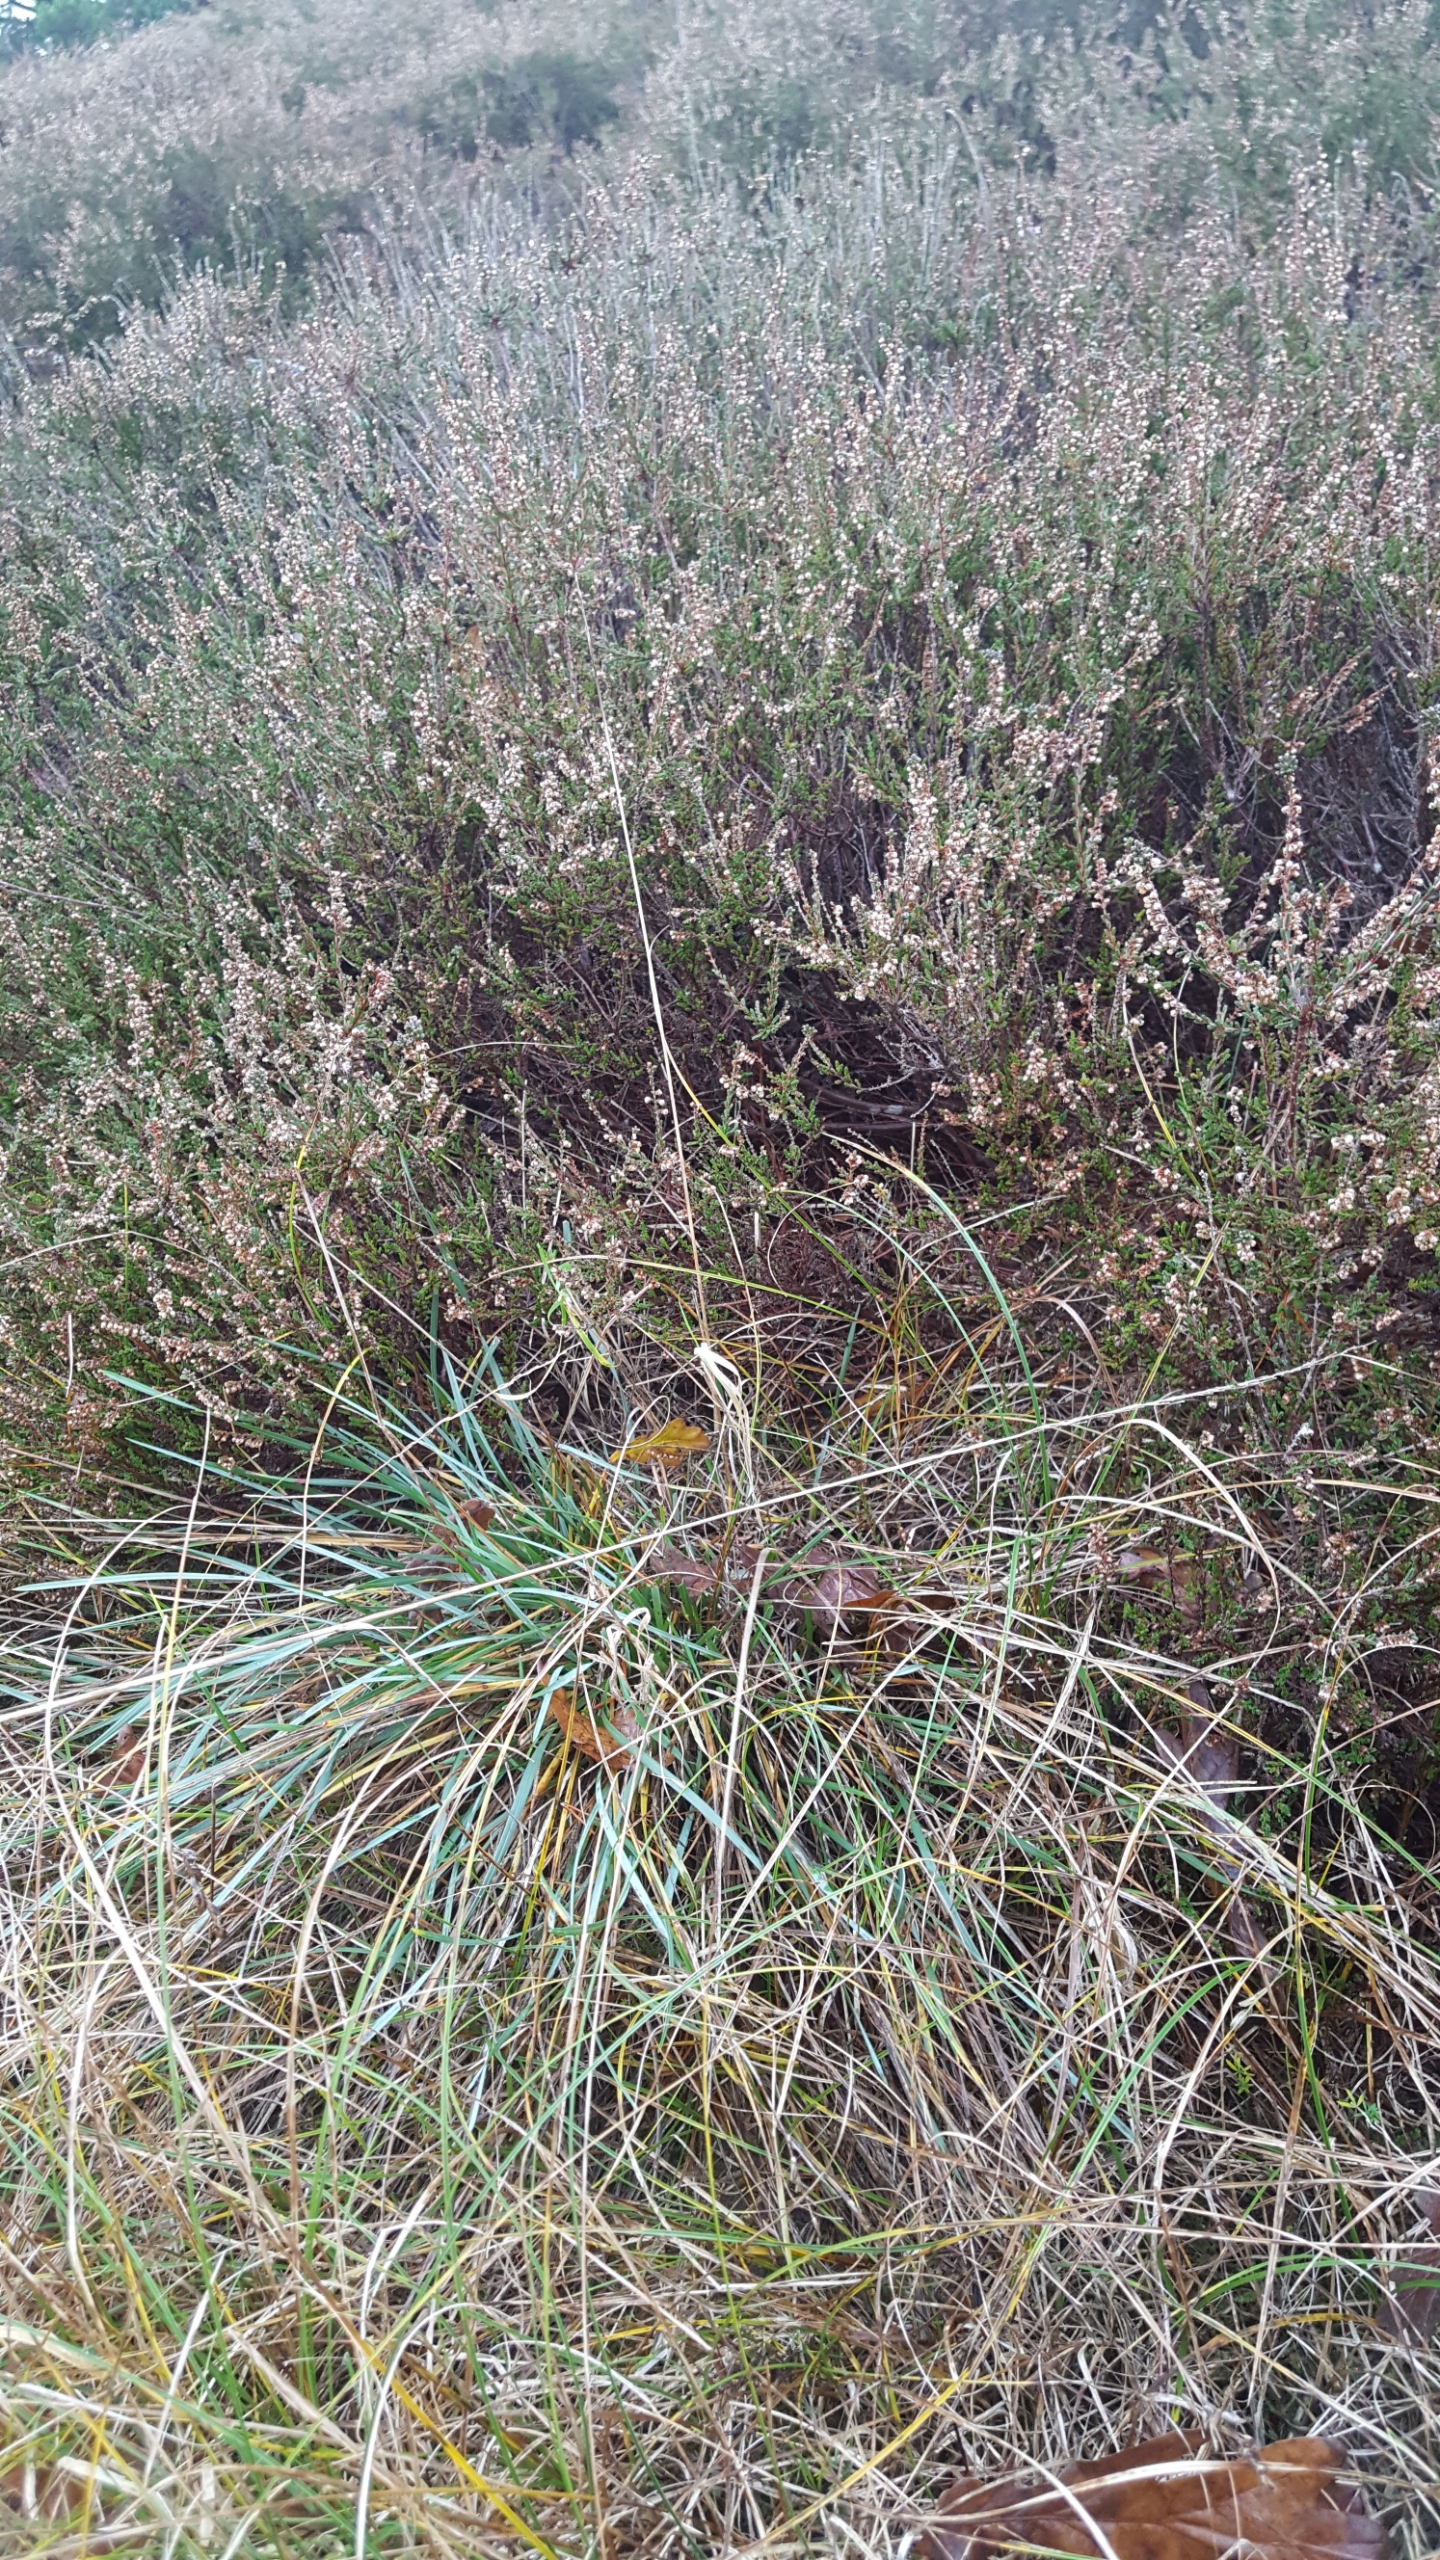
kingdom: Plantae
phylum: Tracheophyta
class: Liliopsida
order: Poales
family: Poaceae
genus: Helictochloa
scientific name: Helictochloa pratensis
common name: Eng-havre
